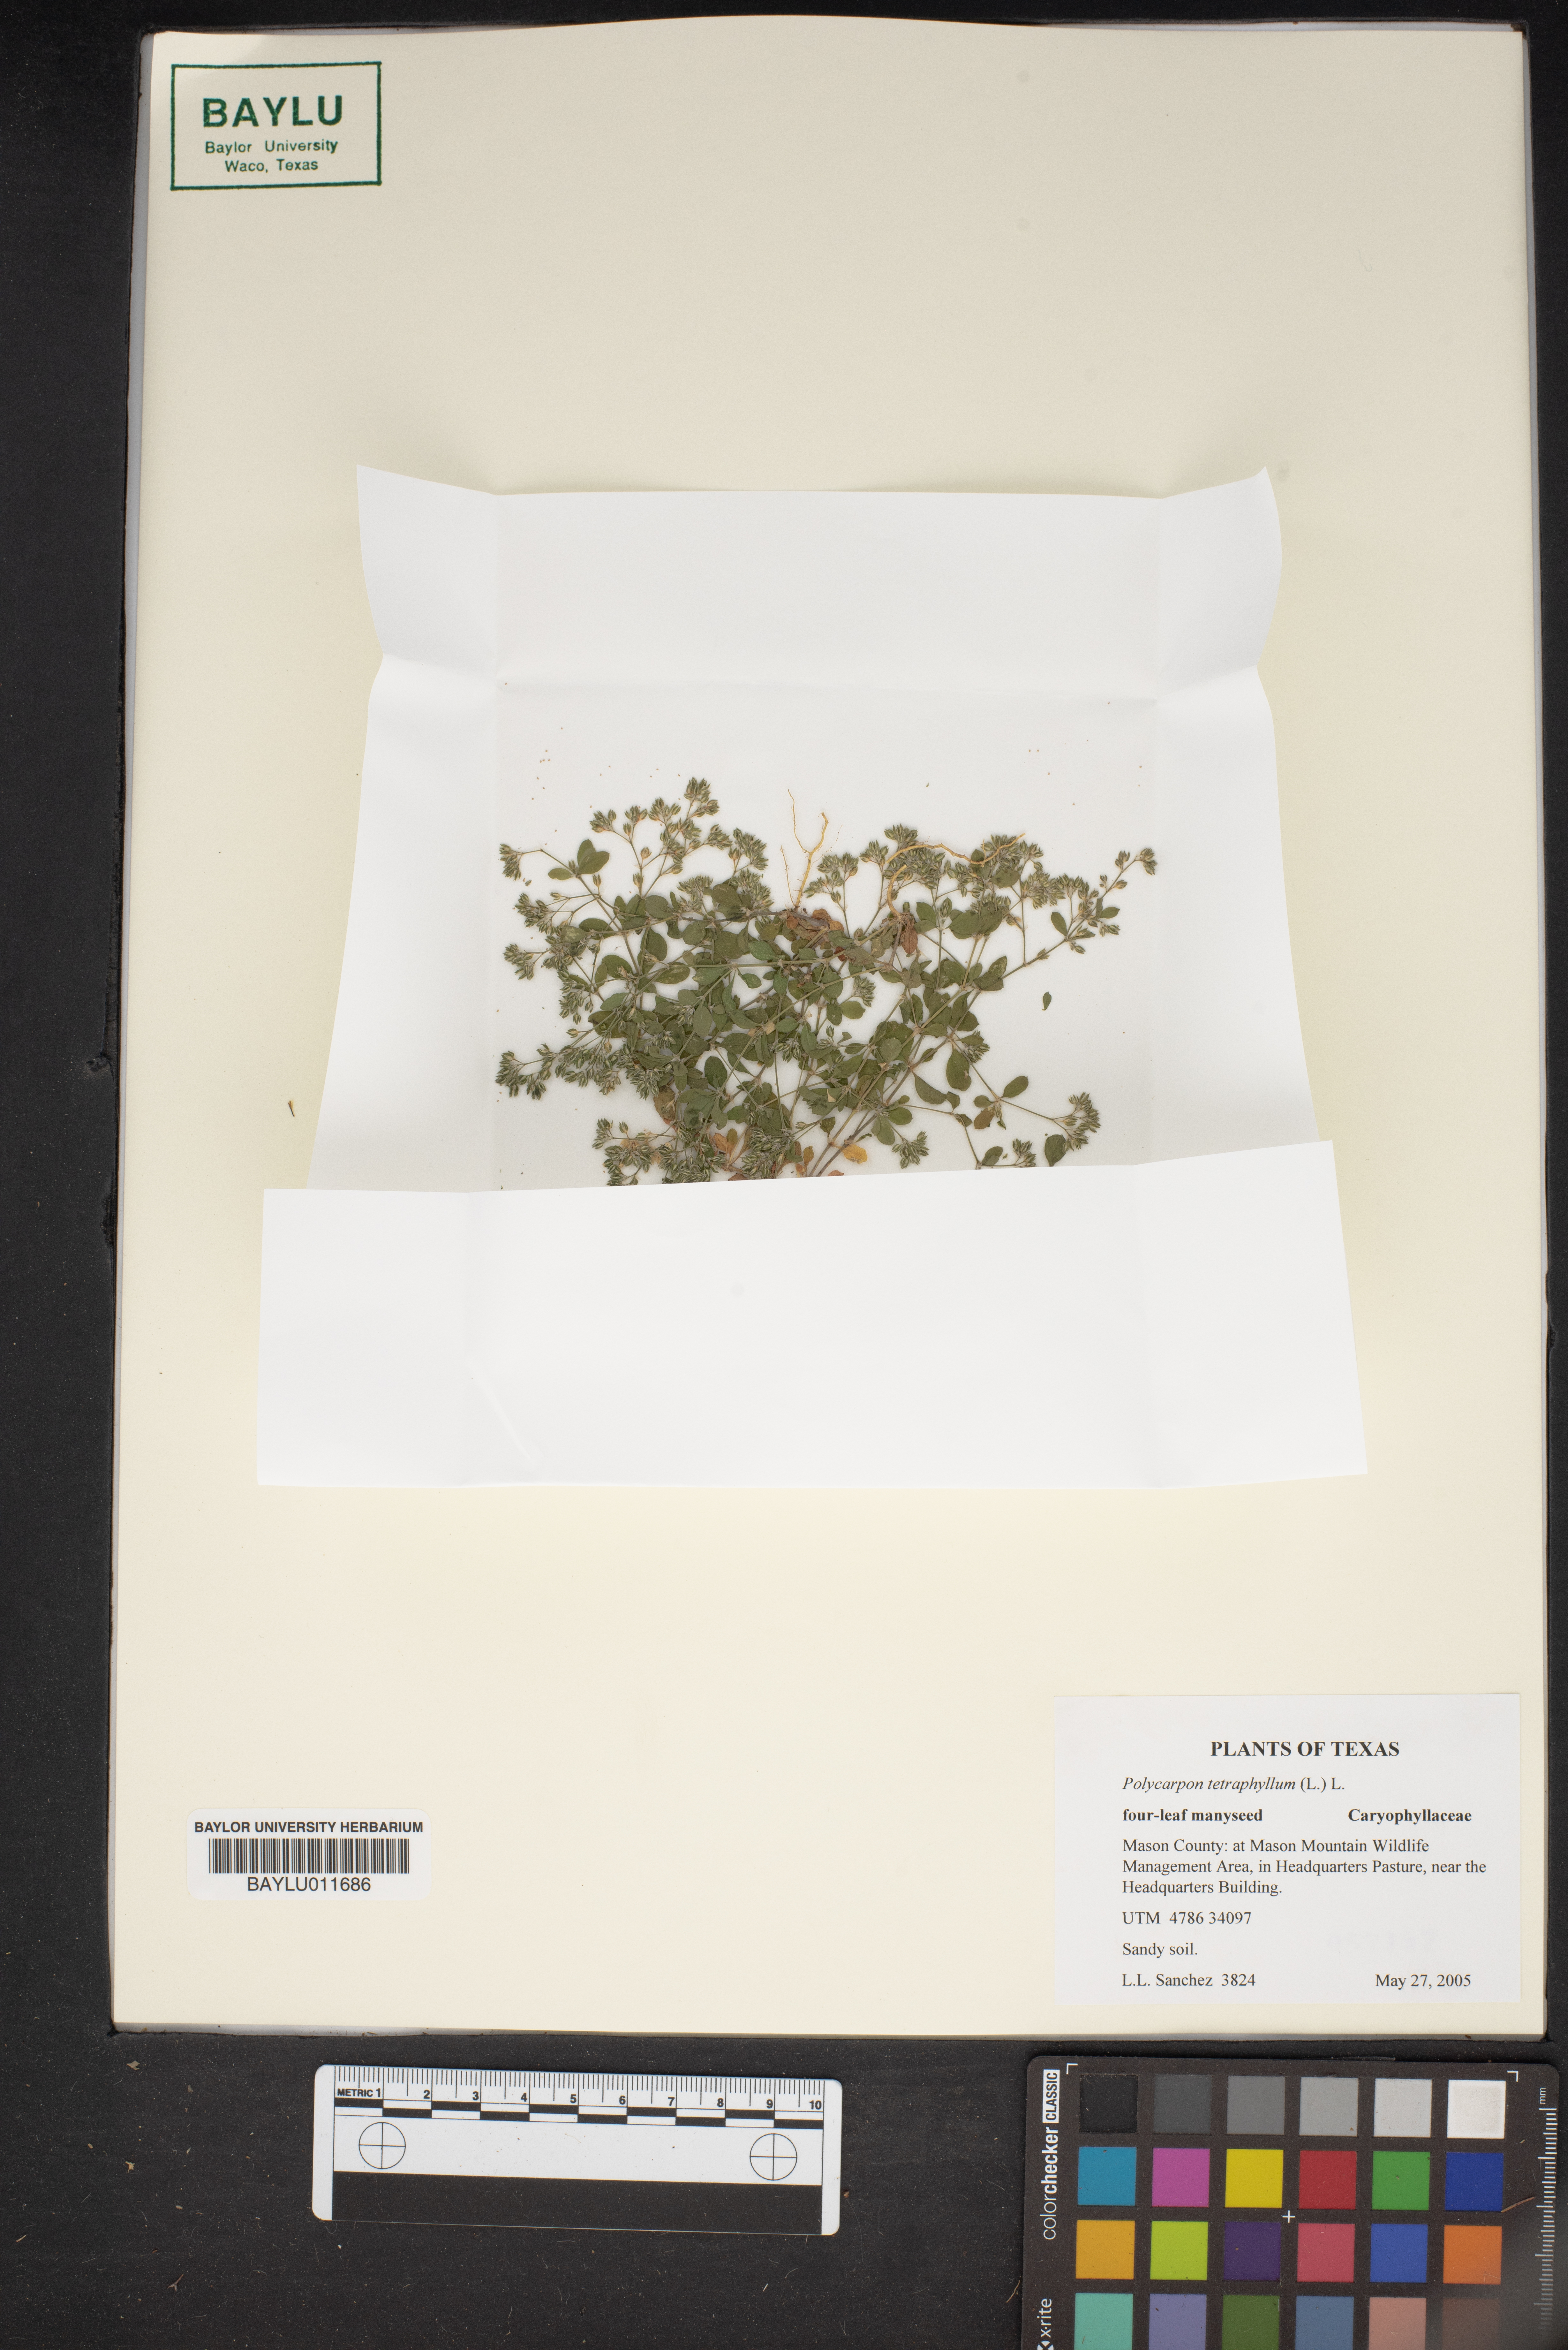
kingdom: Plantae
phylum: Tracheophyta
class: Magnoliopsida
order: Caryophyllales
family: Caryophyllaceae
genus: Polycarpon
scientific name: Polycarpon tetraphyllum
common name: Four-leaved all-seed
